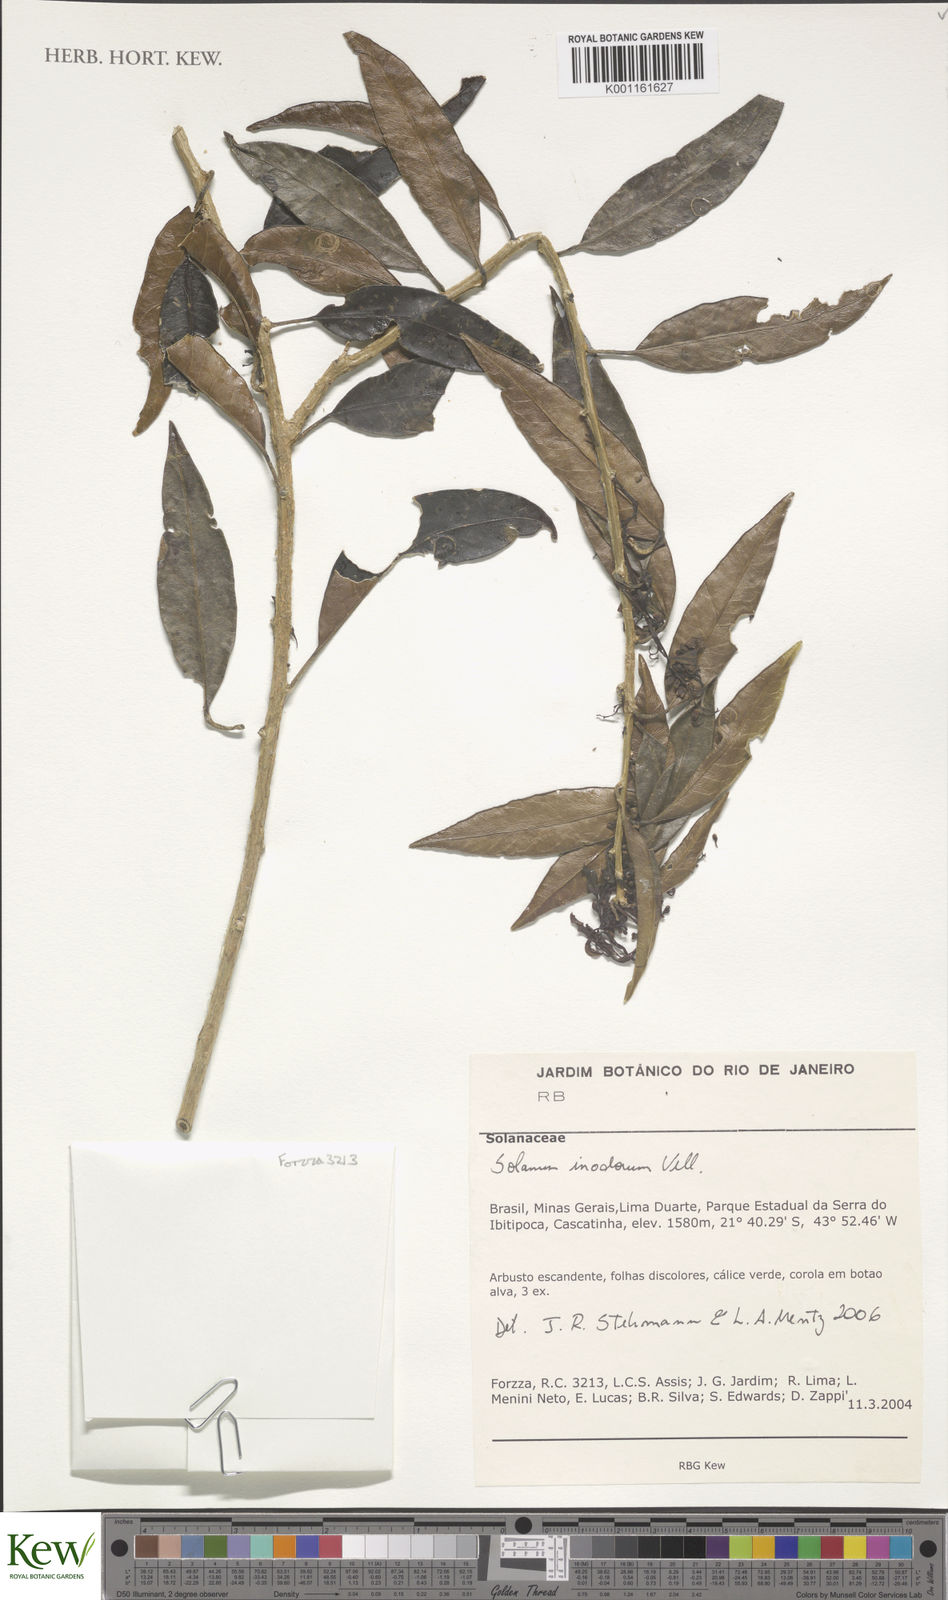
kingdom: Plantae
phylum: Tracheophyta
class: Magnoliopsida
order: Solanales
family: Solanaceae
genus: Solanum
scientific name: Solanum inodorum
